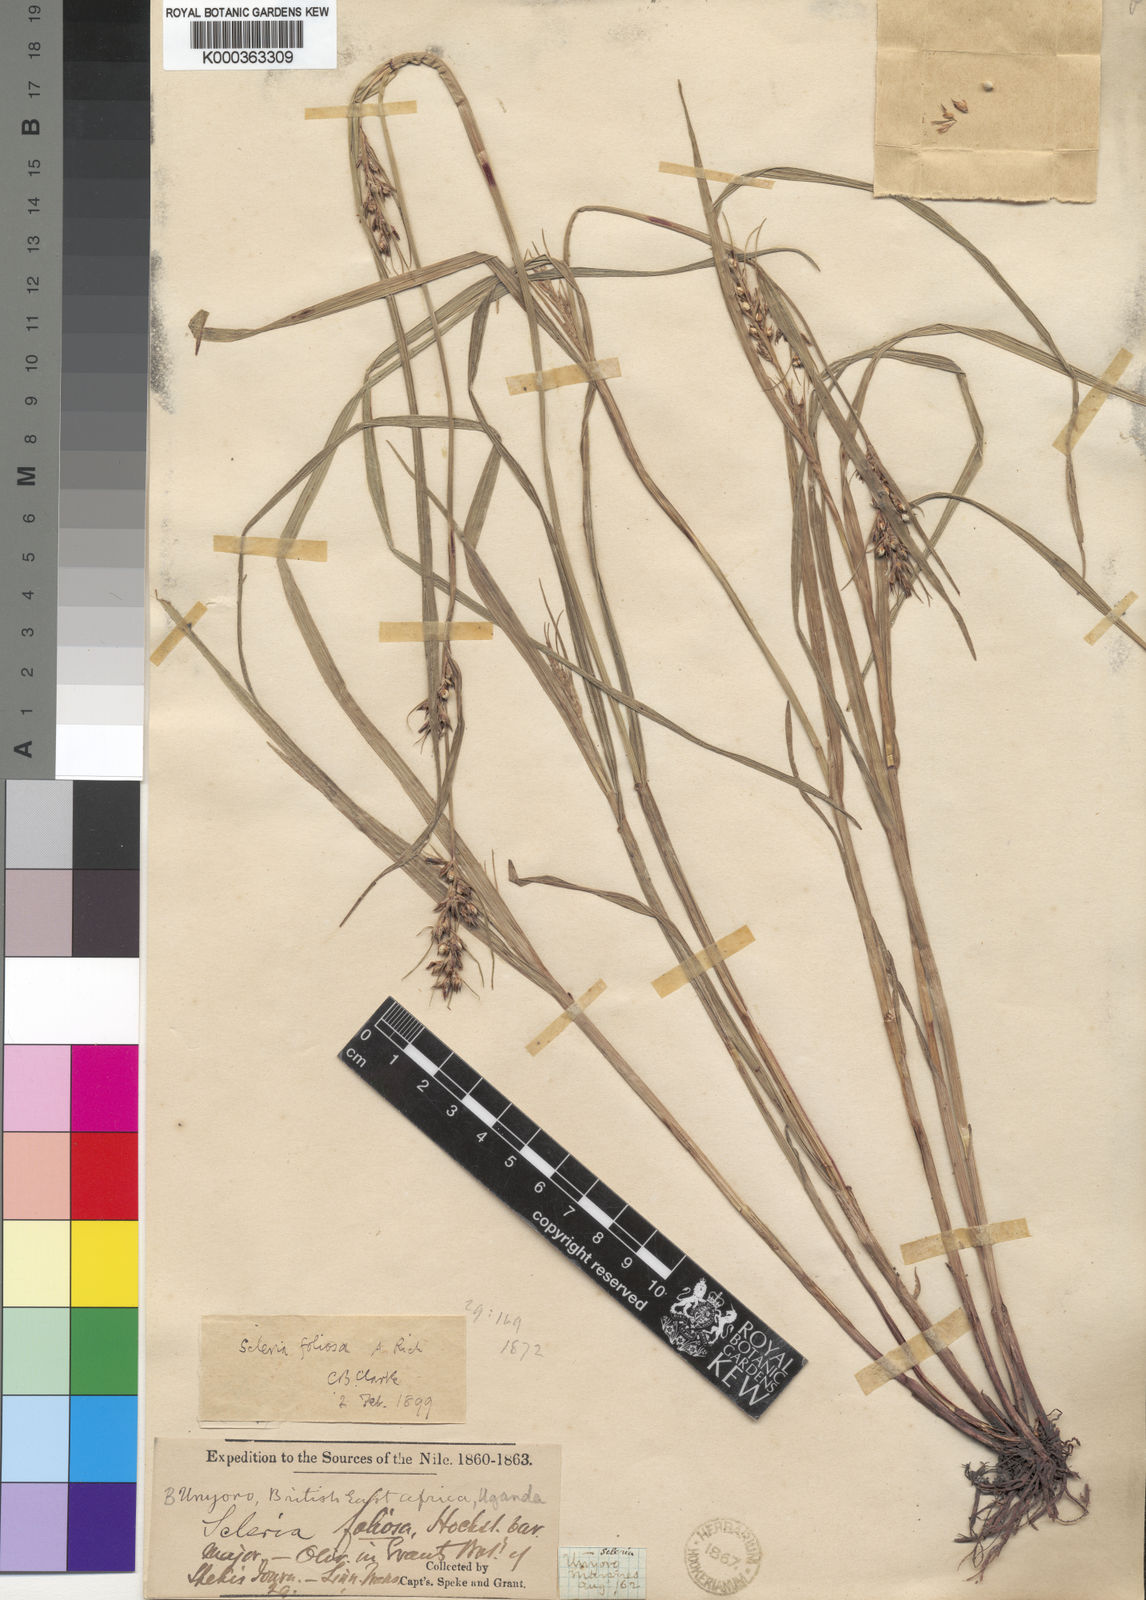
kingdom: Plantae
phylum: Tracheophyta
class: Liliopsida
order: Poales
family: Cyperaceae
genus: Scleria
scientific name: Scleria foliosa
